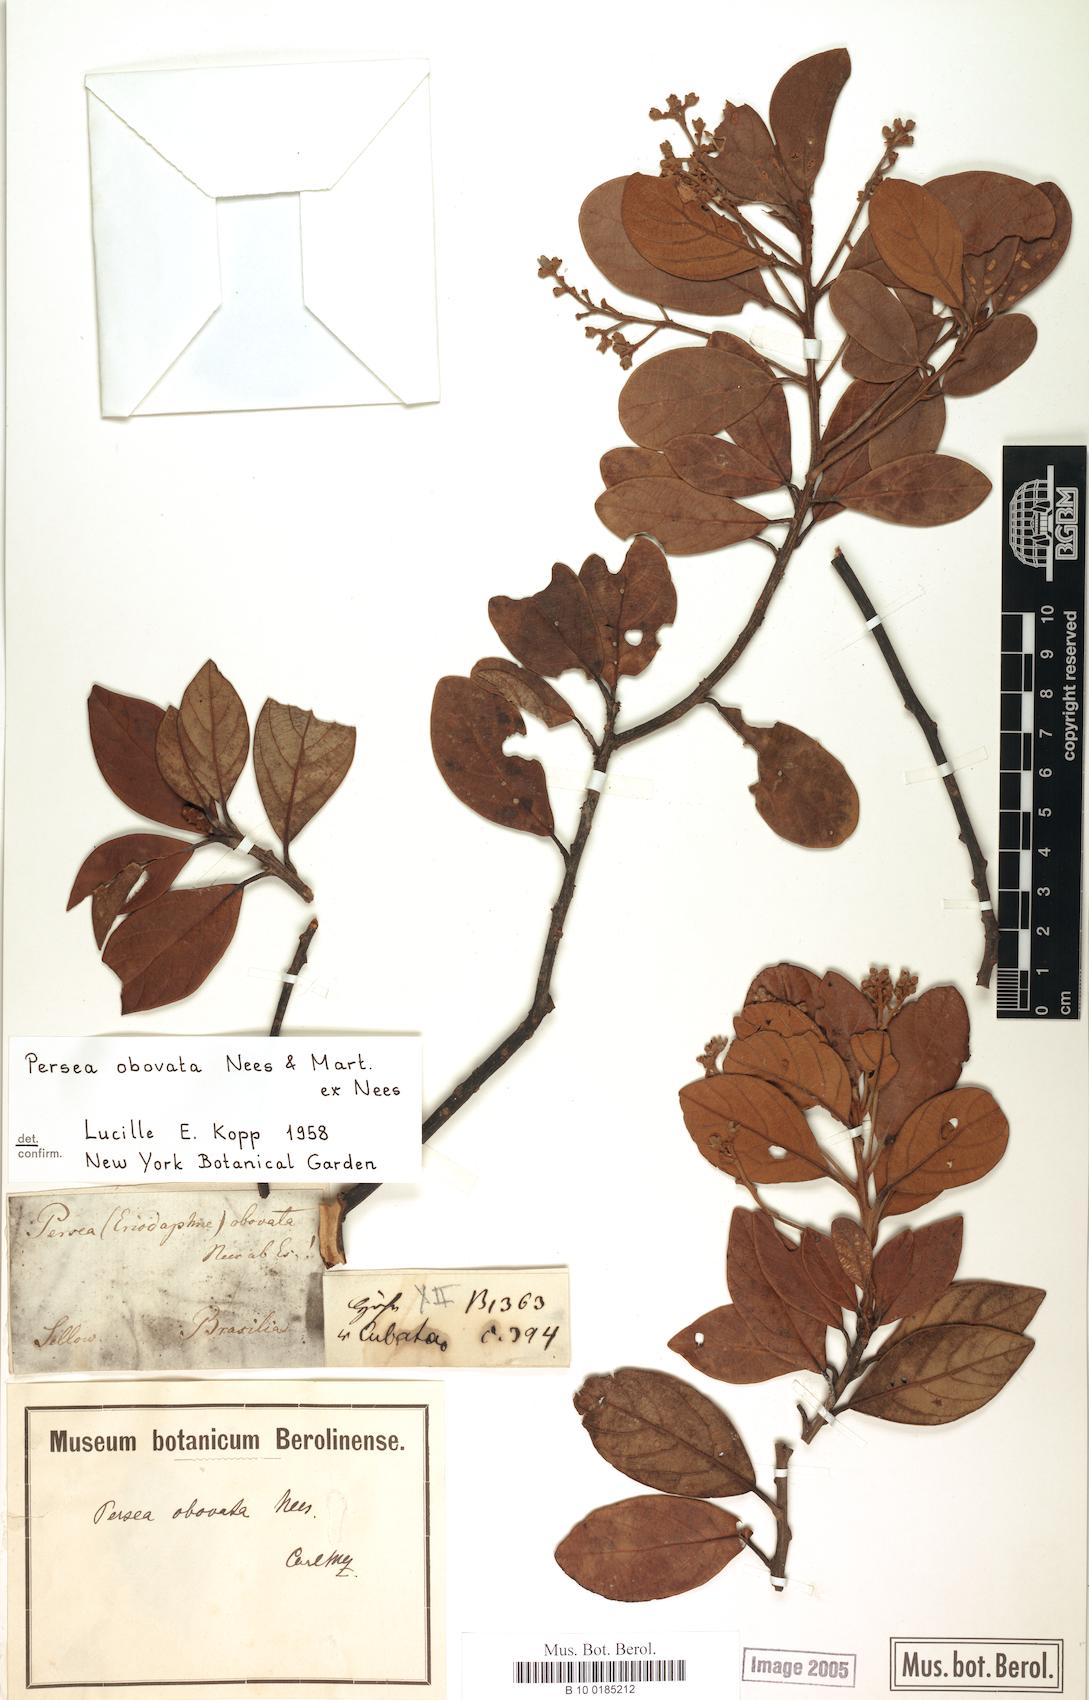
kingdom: Plantae
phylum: Tracheophyta
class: Magnoliopsida
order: Laurales
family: Lauraceae
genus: Persea
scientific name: Persea obovata
